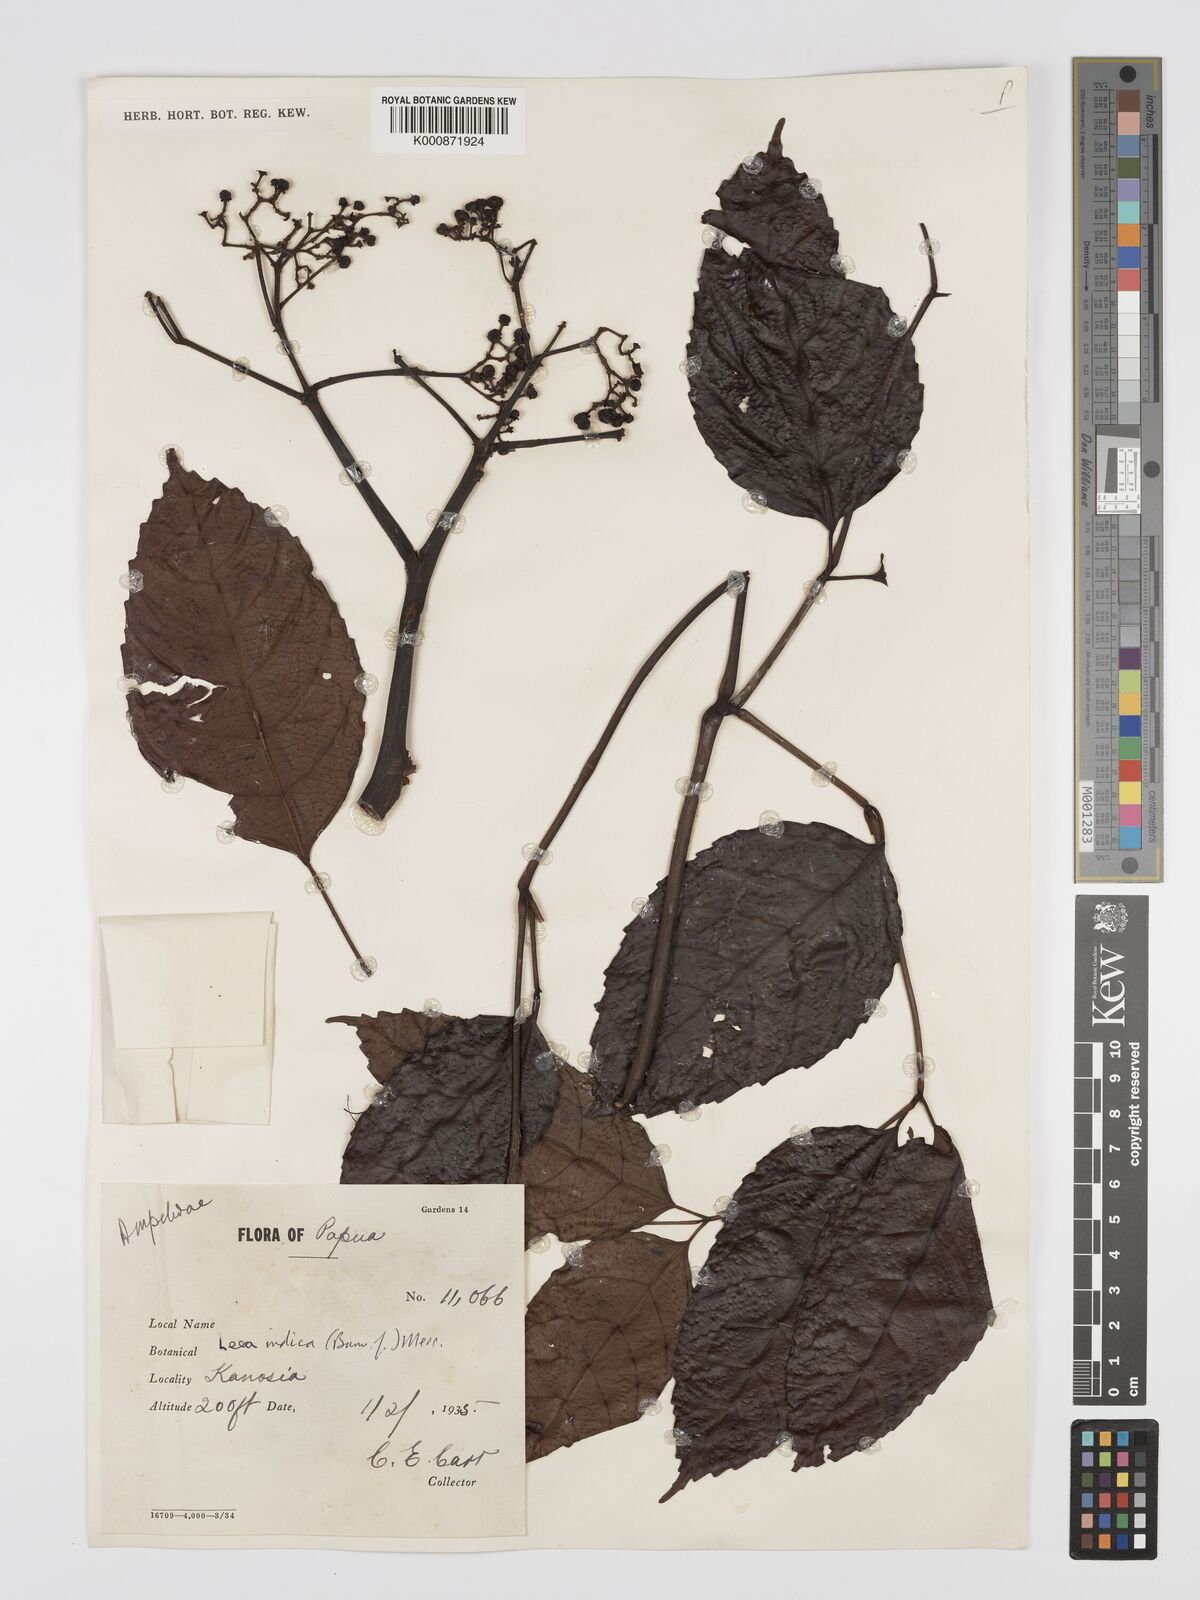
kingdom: Plantae
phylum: Tracheophyta
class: Magnoliopsida
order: Vitales
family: Vitaceae
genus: Leea
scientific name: Leea indica
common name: Bandicoot-berry
